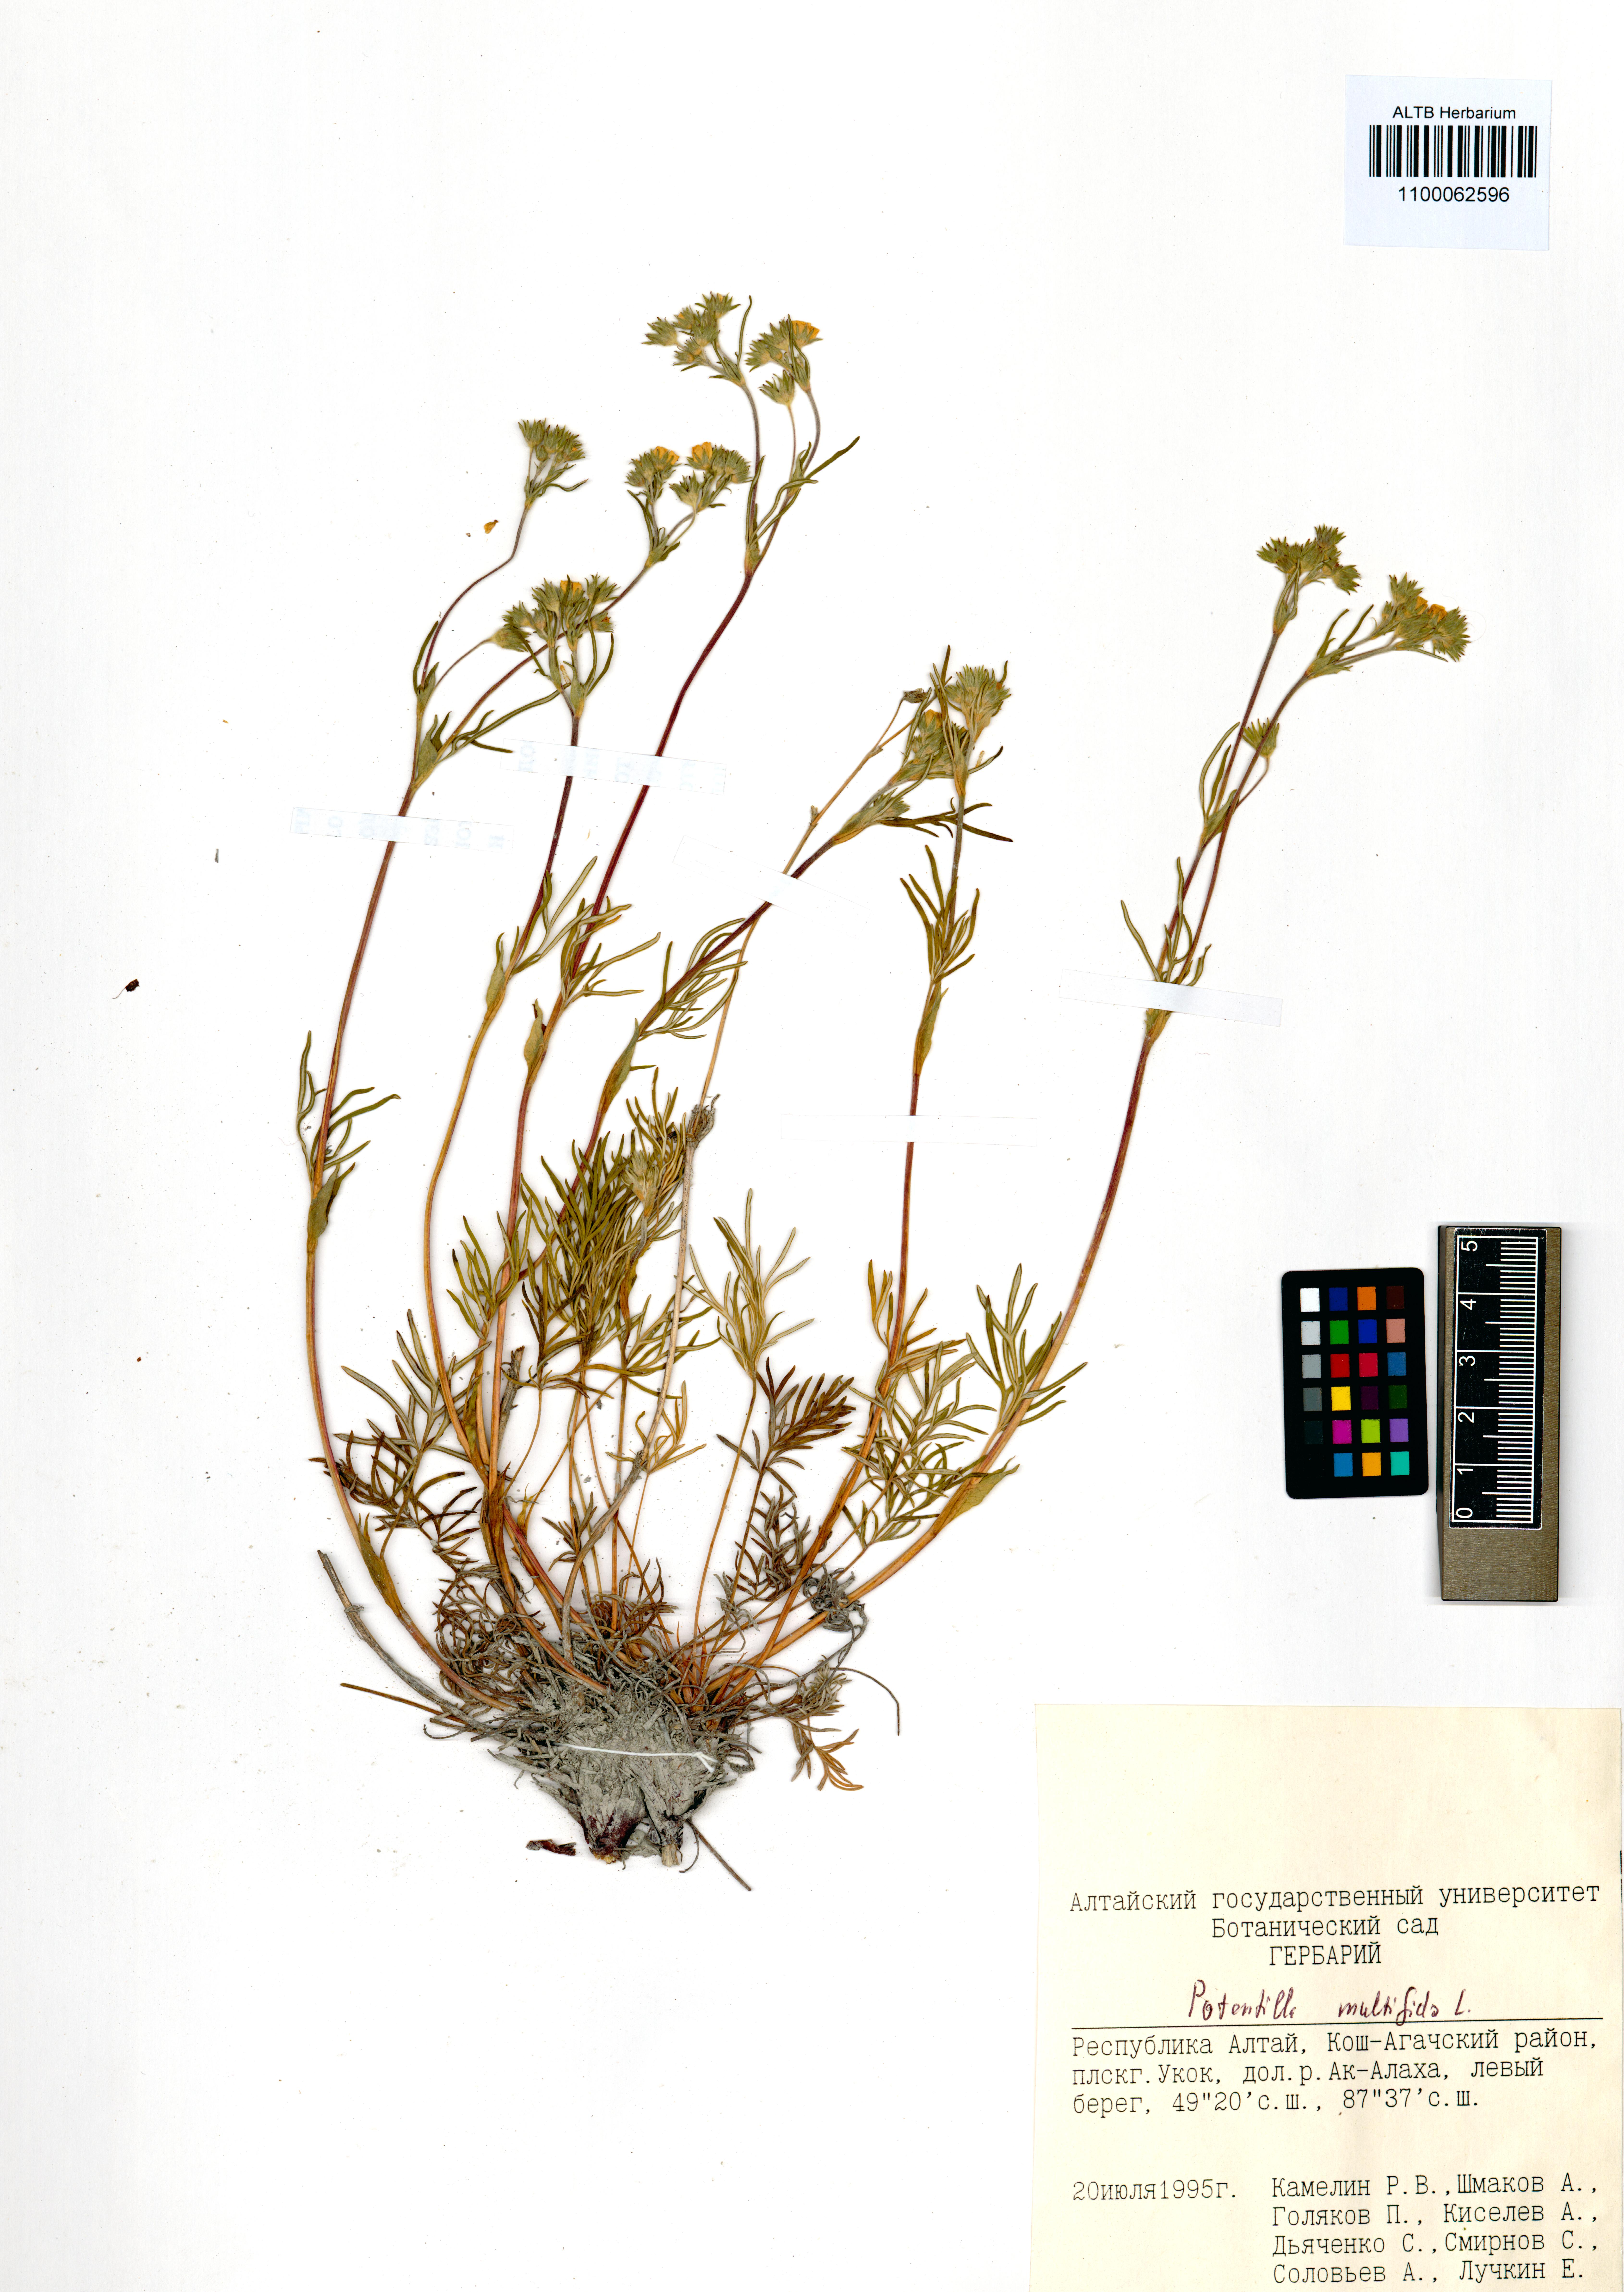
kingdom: Plantae
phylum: Tracheophyta
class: Magnoliopsida
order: Rosales
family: Rosaceae
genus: Potentilla
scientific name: Potentilla multifida
